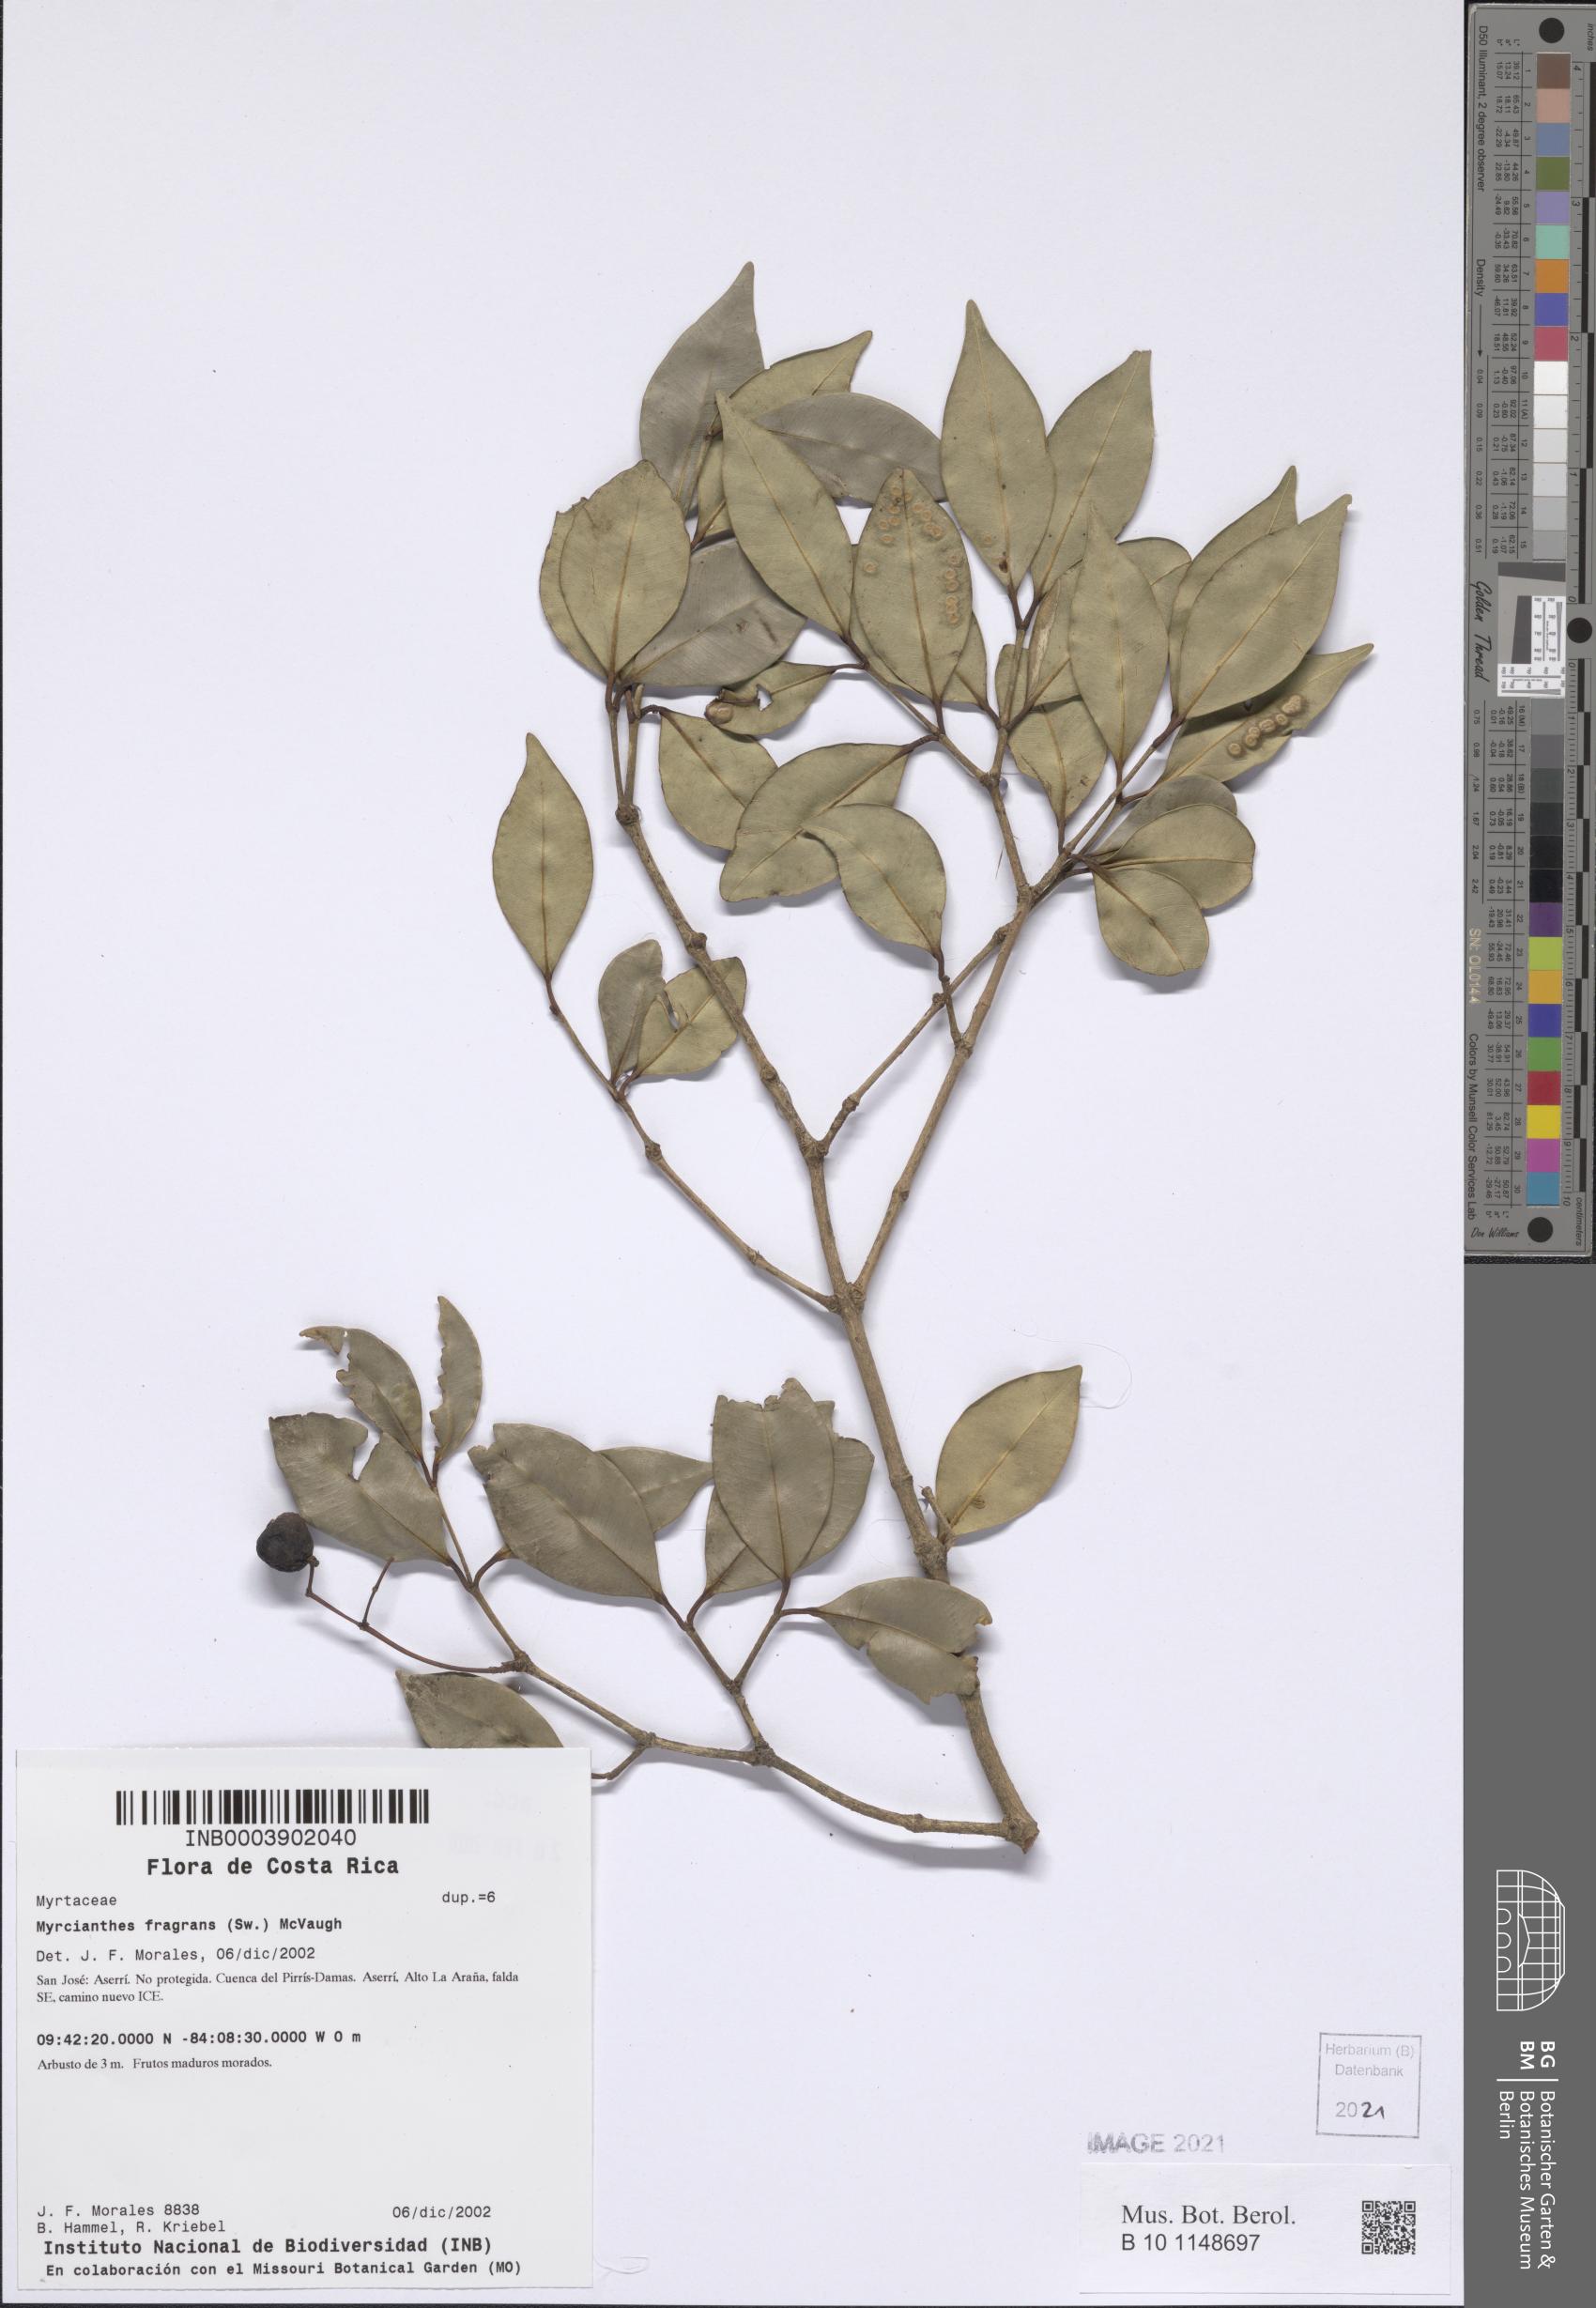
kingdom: Plantae
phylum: Tracheophyta
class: Magnoliopsida
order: Myrtales
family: Myrtaceae
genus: Myrcianthes
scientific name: Myrcianthes fragrans
